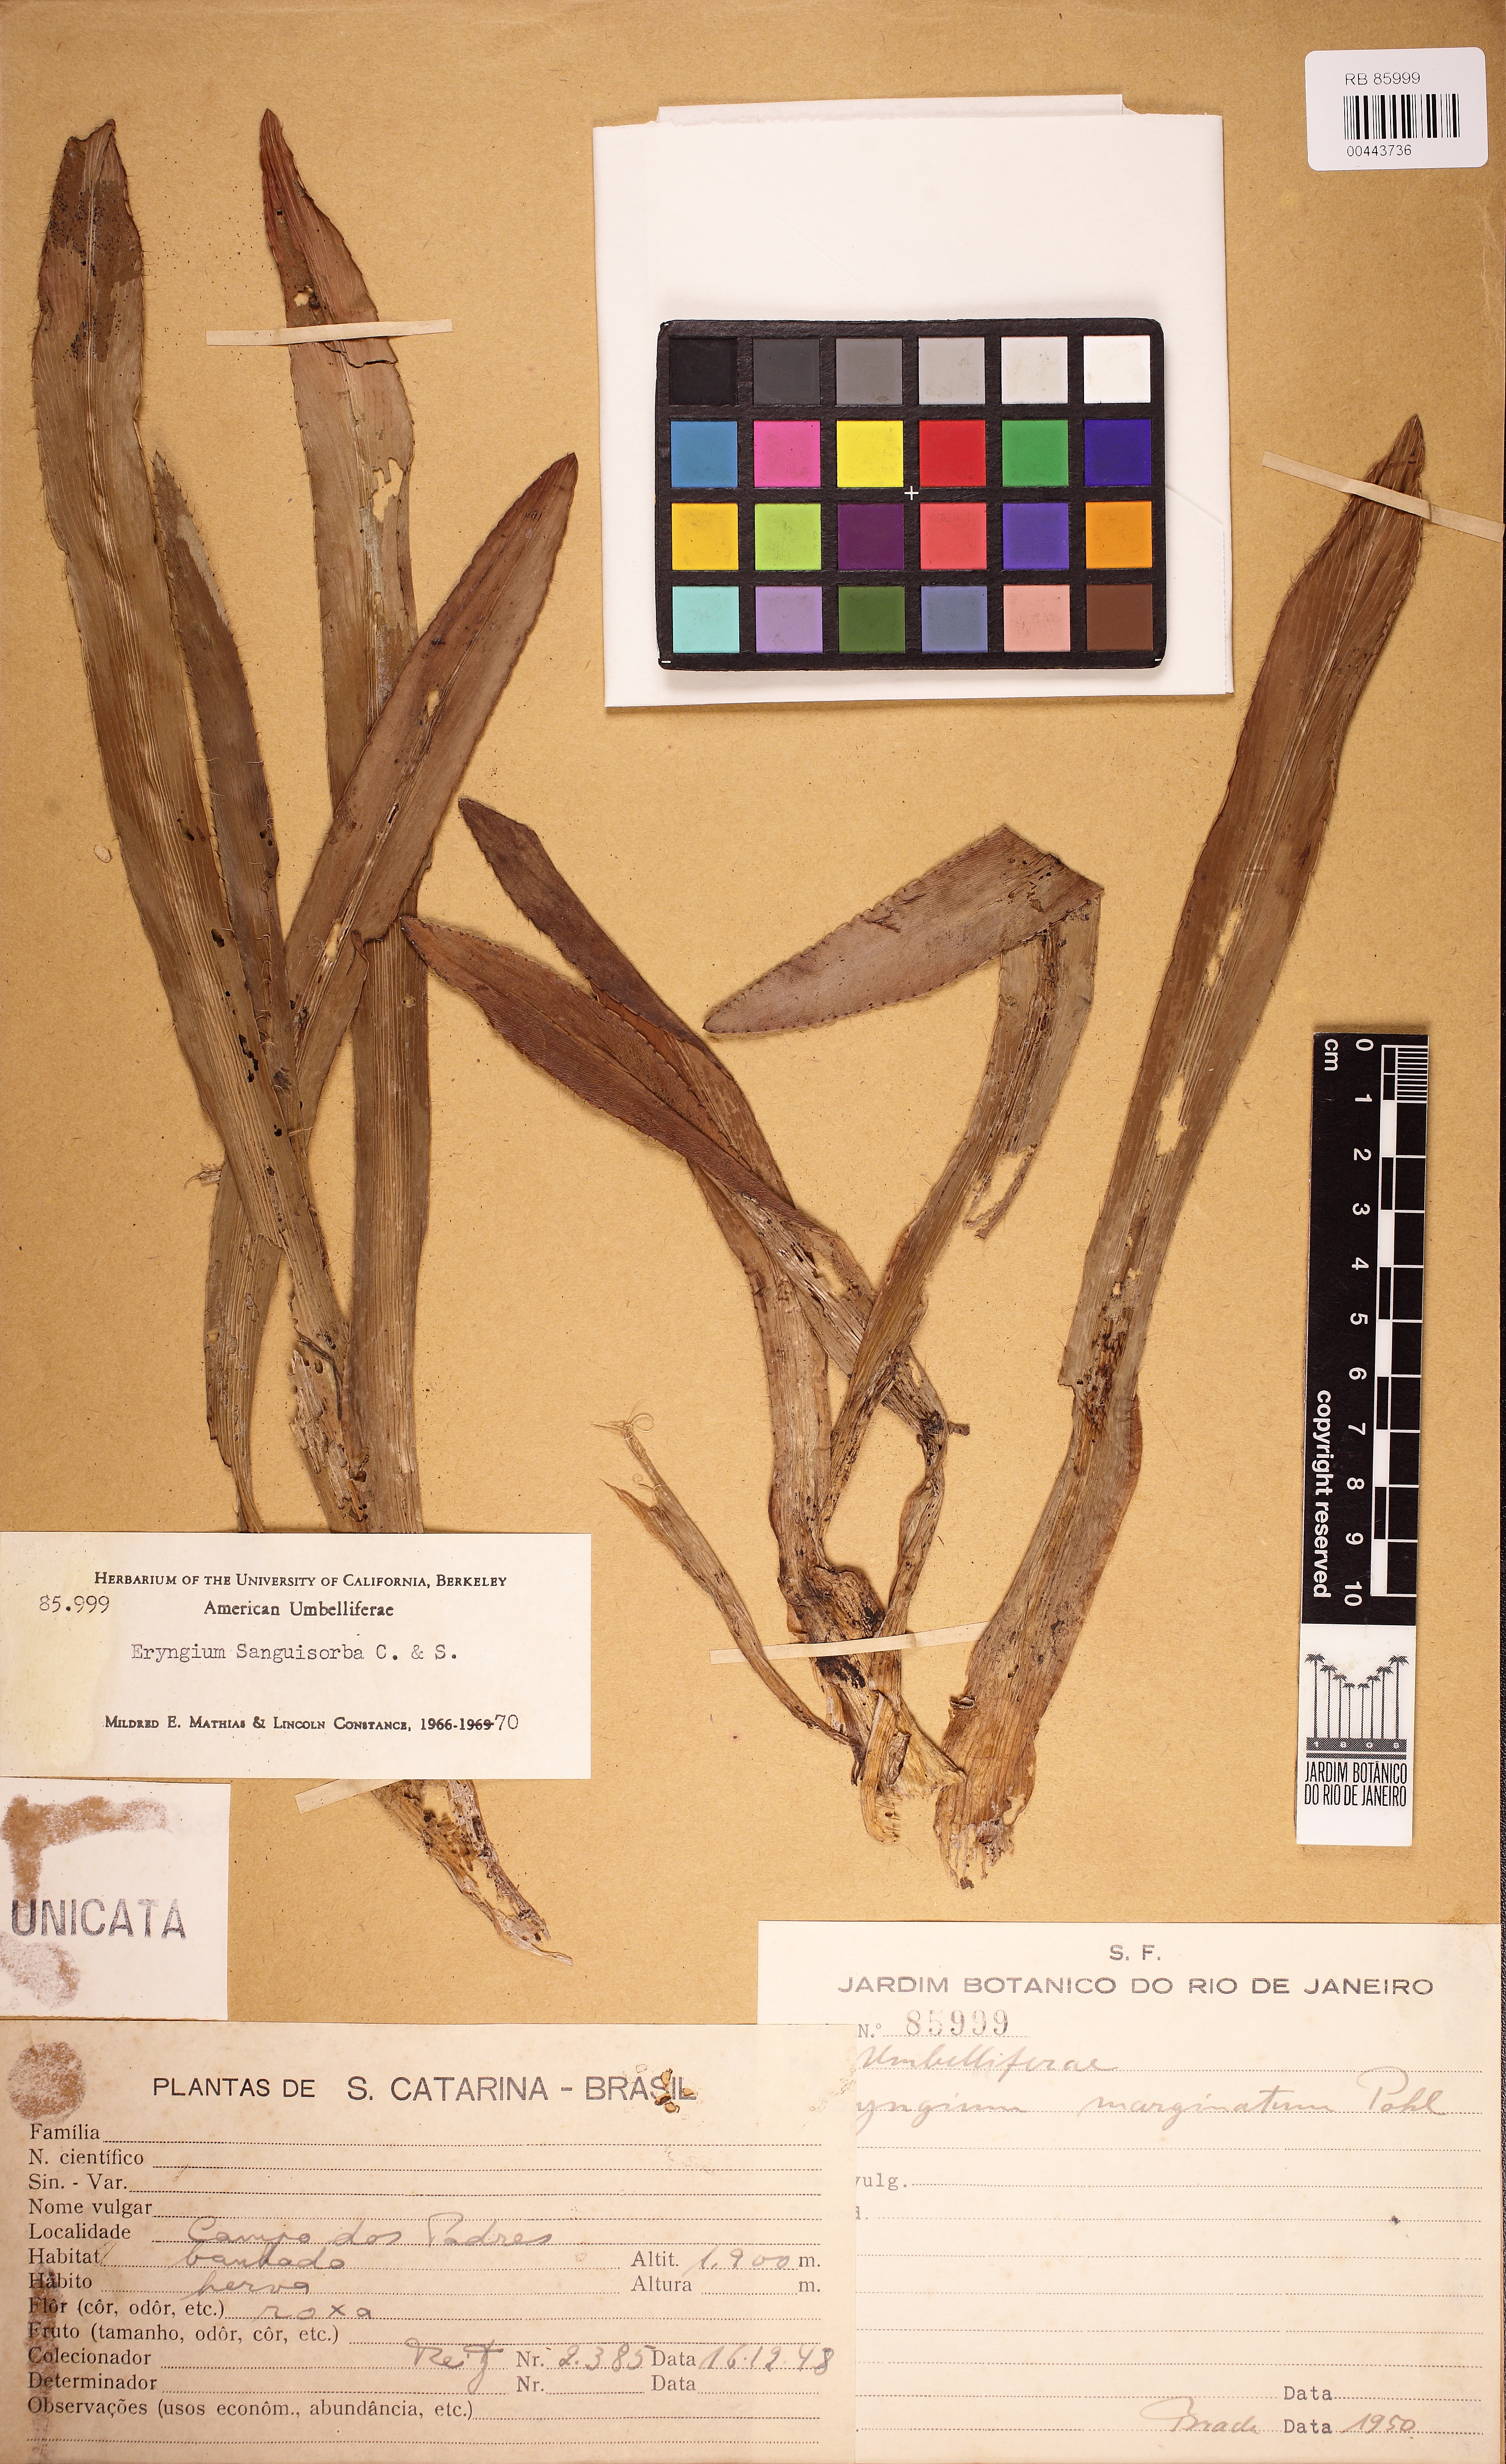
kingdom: Plantae
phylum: Tracheophyta
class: Magnoliopsida
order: Apiales
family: Apiaceae
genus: Eryngium
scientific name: Eryngium urbanianum
